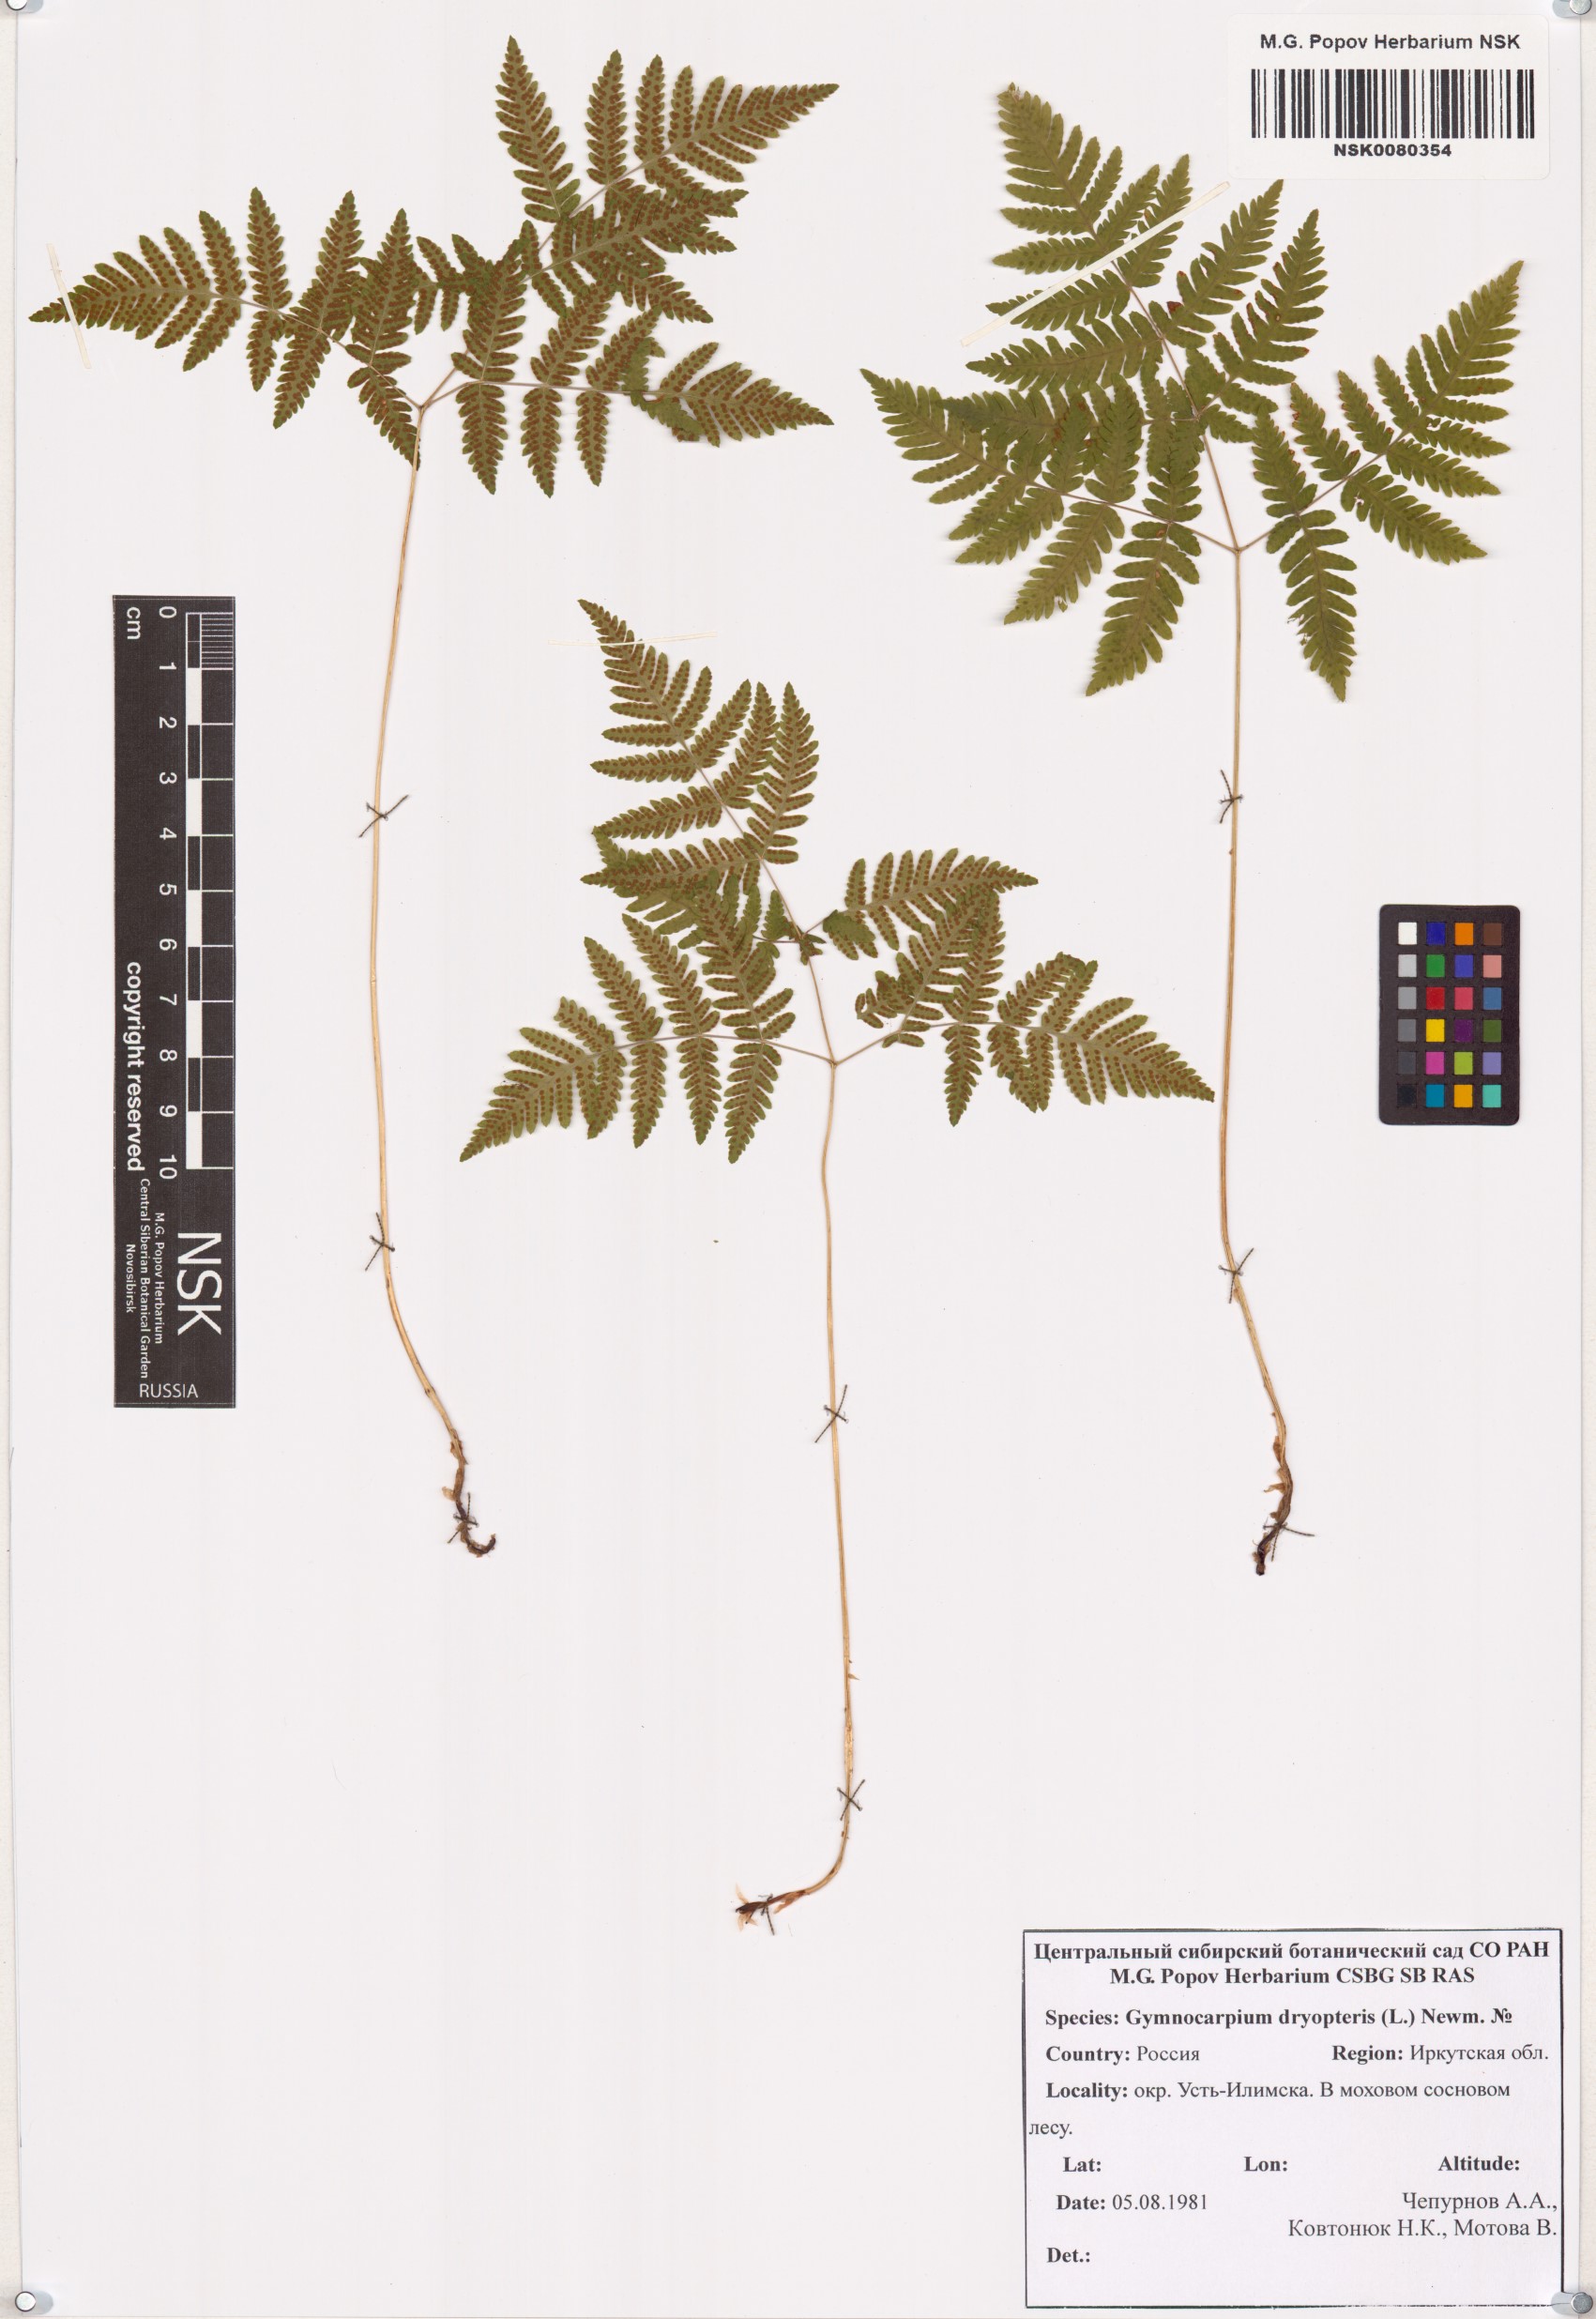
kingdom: Plantae
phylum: Tracheophyta
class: Polypodiopsida
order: Polypodiales
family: Cystopteridaceae
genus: Gymnocarpium
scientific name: Gymnocarpium dryopteris
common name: Oak fern
